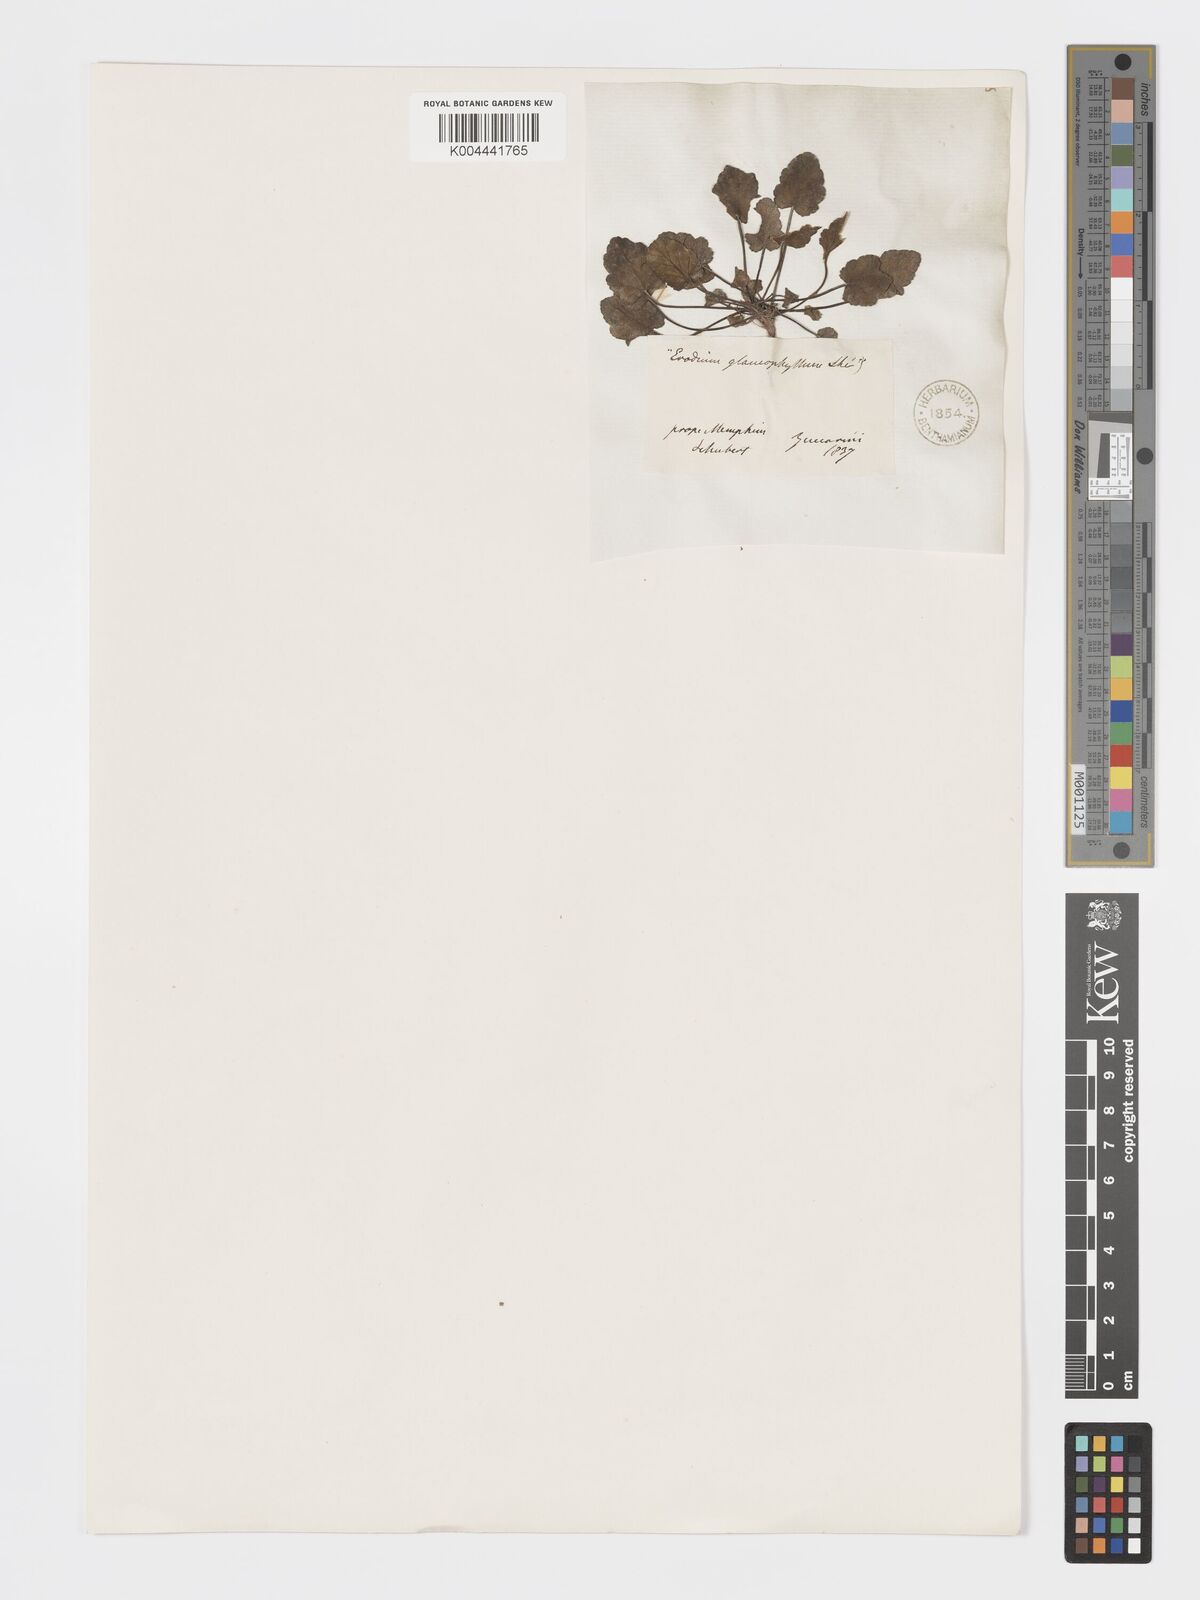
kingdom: Plantae
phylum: Tracheophyta
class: Magnoliopsida
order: Geraniales
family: Geraniaceae
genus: Erodium
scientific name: Erodium glaucophyllum
